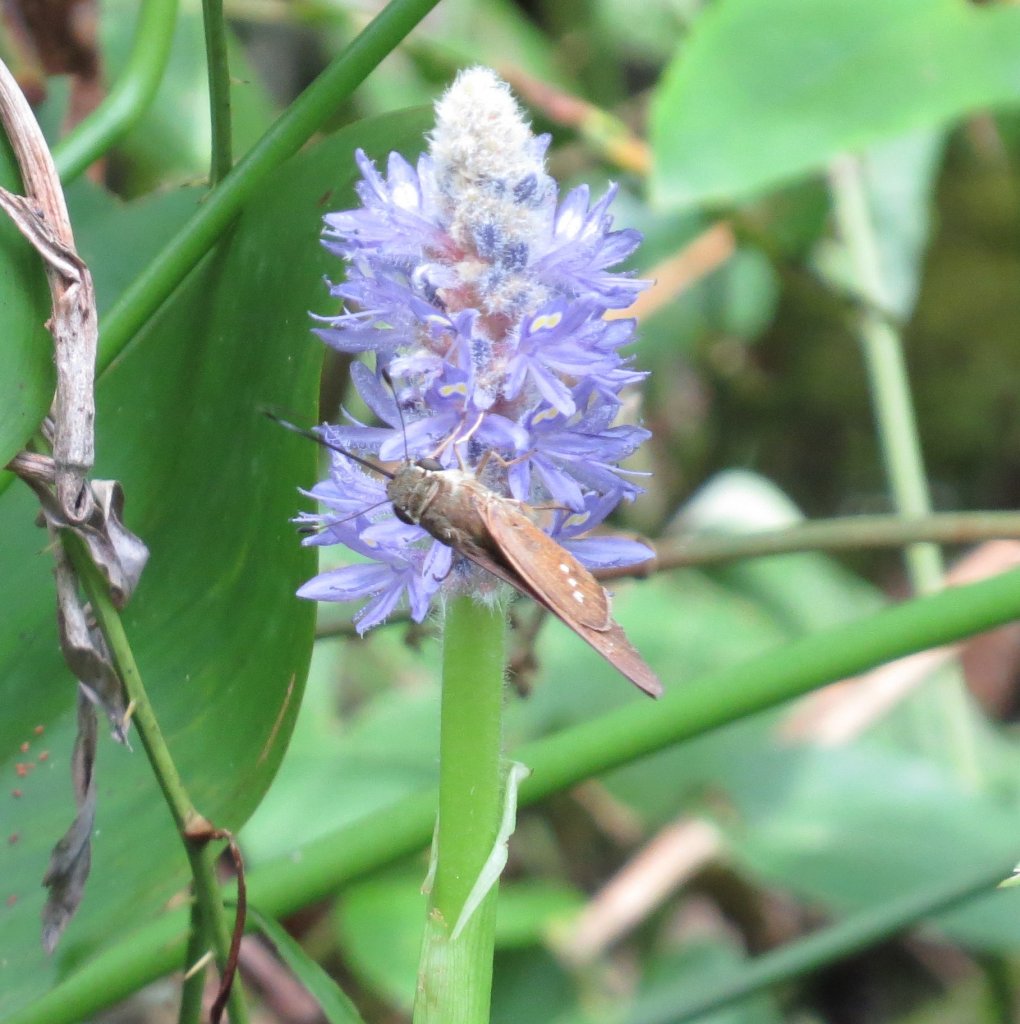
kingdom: Animalia
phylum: Arthropoda
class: Insecta
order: Lepidoptera
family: Hesperiidae
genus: Calpodes
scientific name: Calpodes ethlius
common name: Brazilian Skipper
